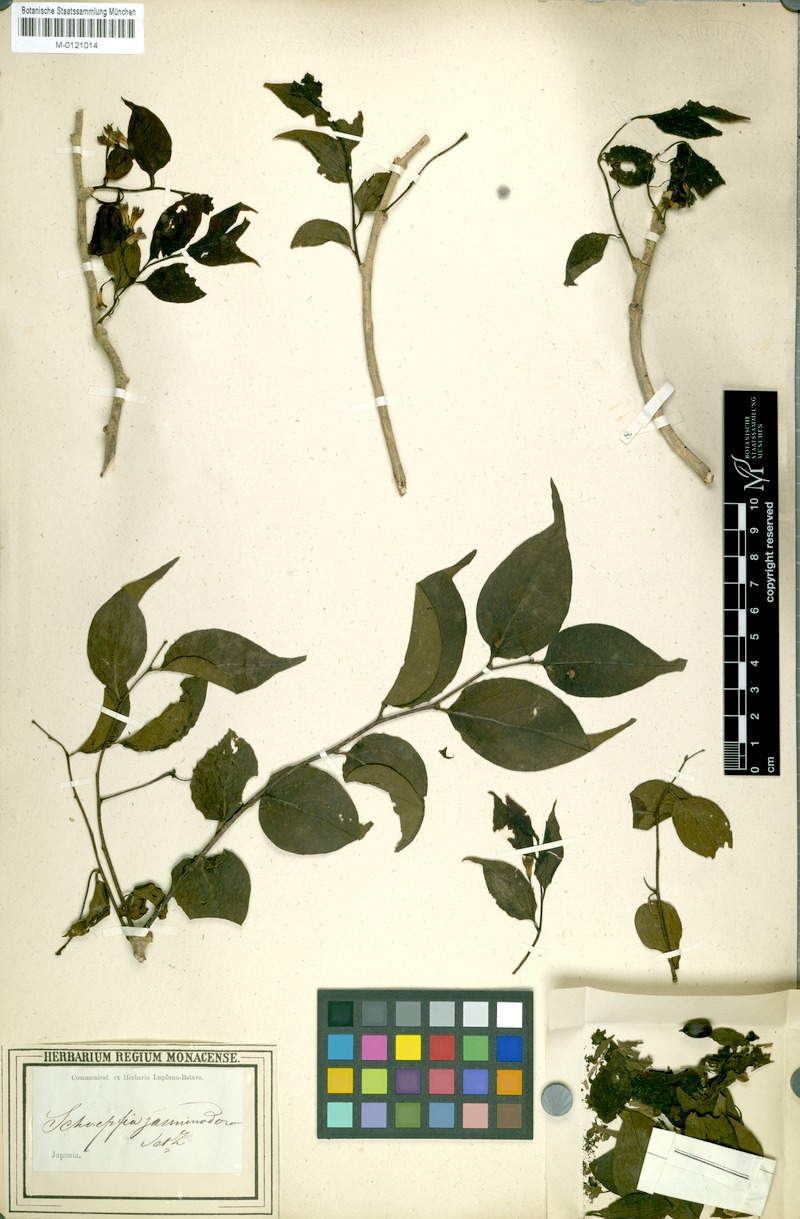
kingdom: Plantae
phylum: Tracheophyta
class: Magnoliopsida
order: Santalales
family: Schoepfiaceae
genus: Schoepfia
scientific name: Schoepfia jasminodora
